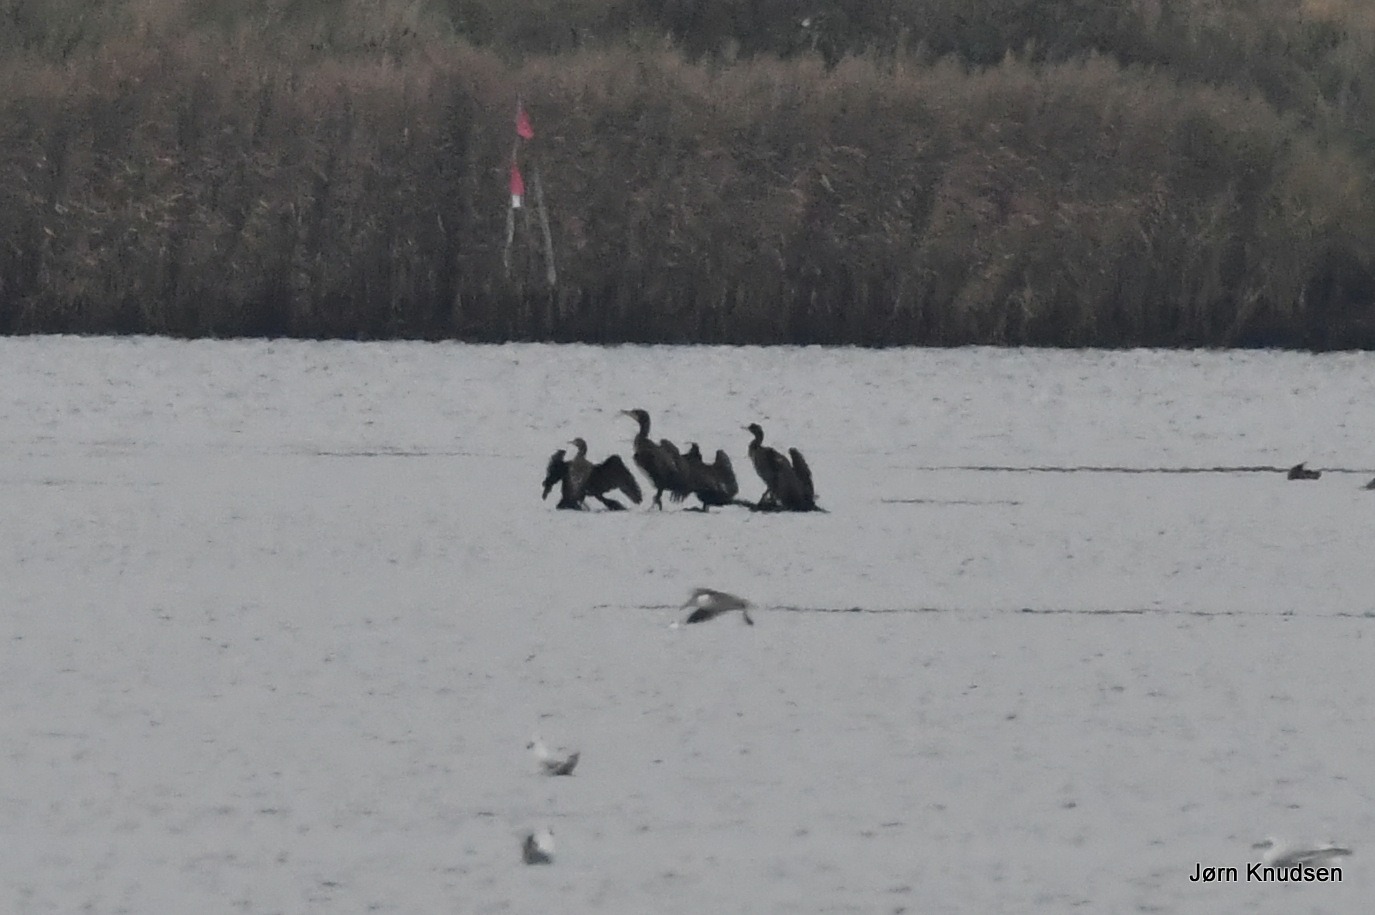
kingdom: Animalia
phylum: Chordata
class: Aves
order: Suliformes
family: Phalacrocoracidae
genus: Phalacrocorax
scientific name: Phalacrocorax carbo
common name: Skarv
